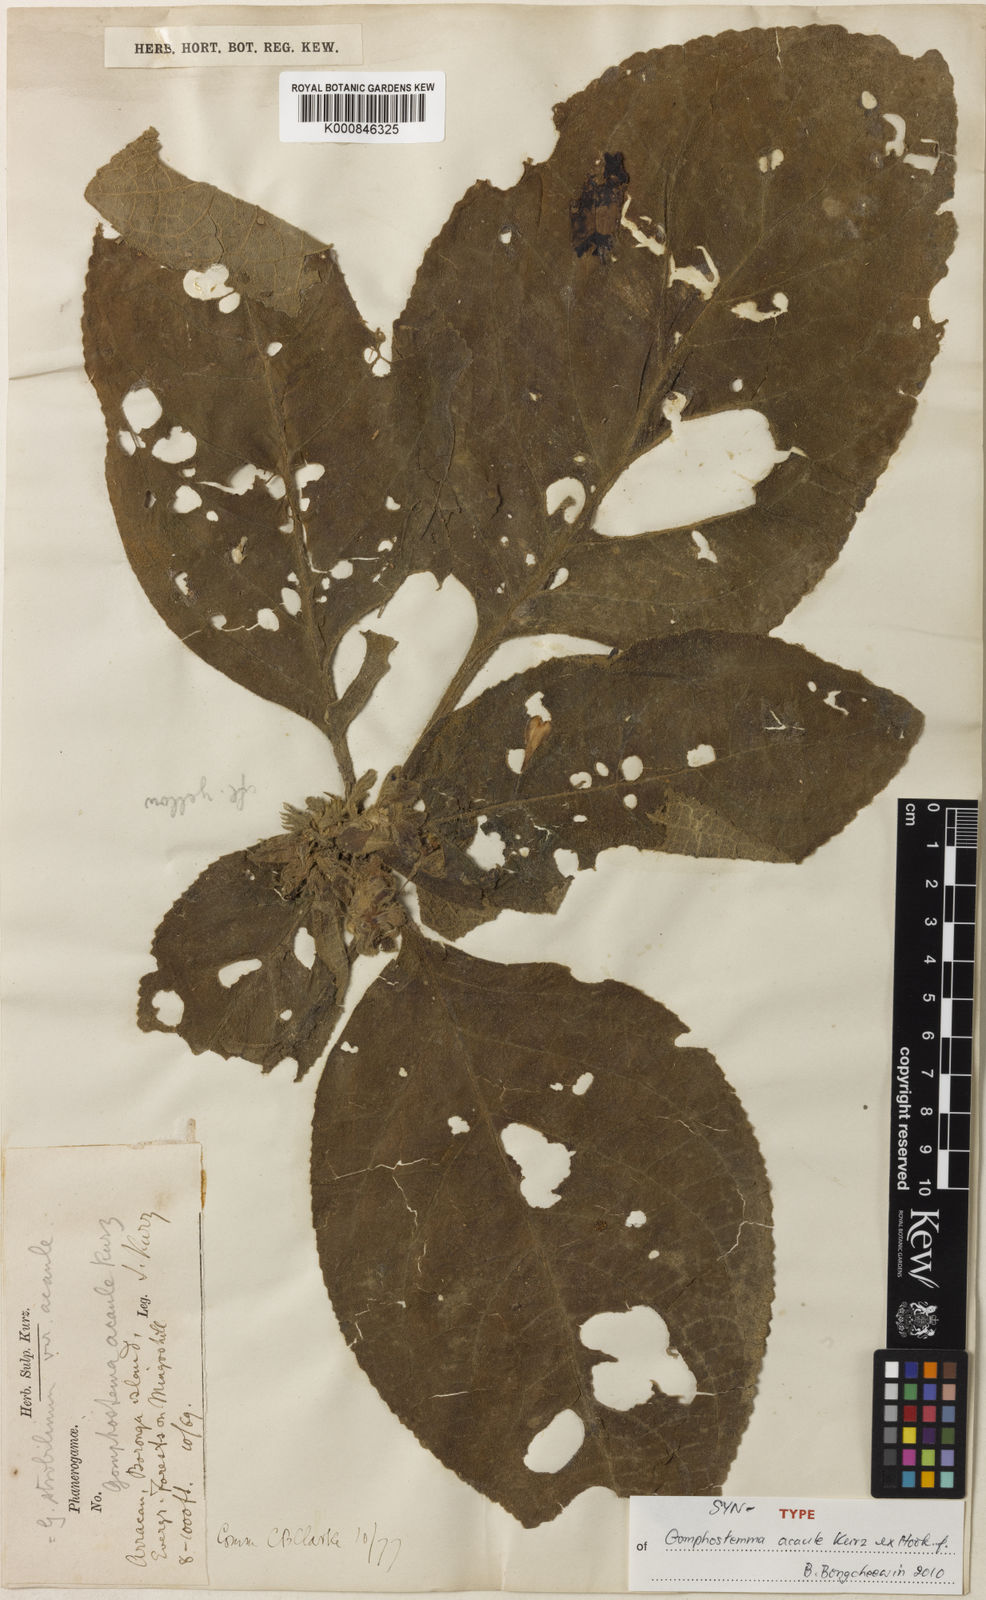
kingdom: Plantae
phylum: Tracheophyta
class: Magnoliopsida
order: Lamiales
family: Lamiaceae
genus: Gomphostemma
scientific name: Gomphostemma strobilinum
